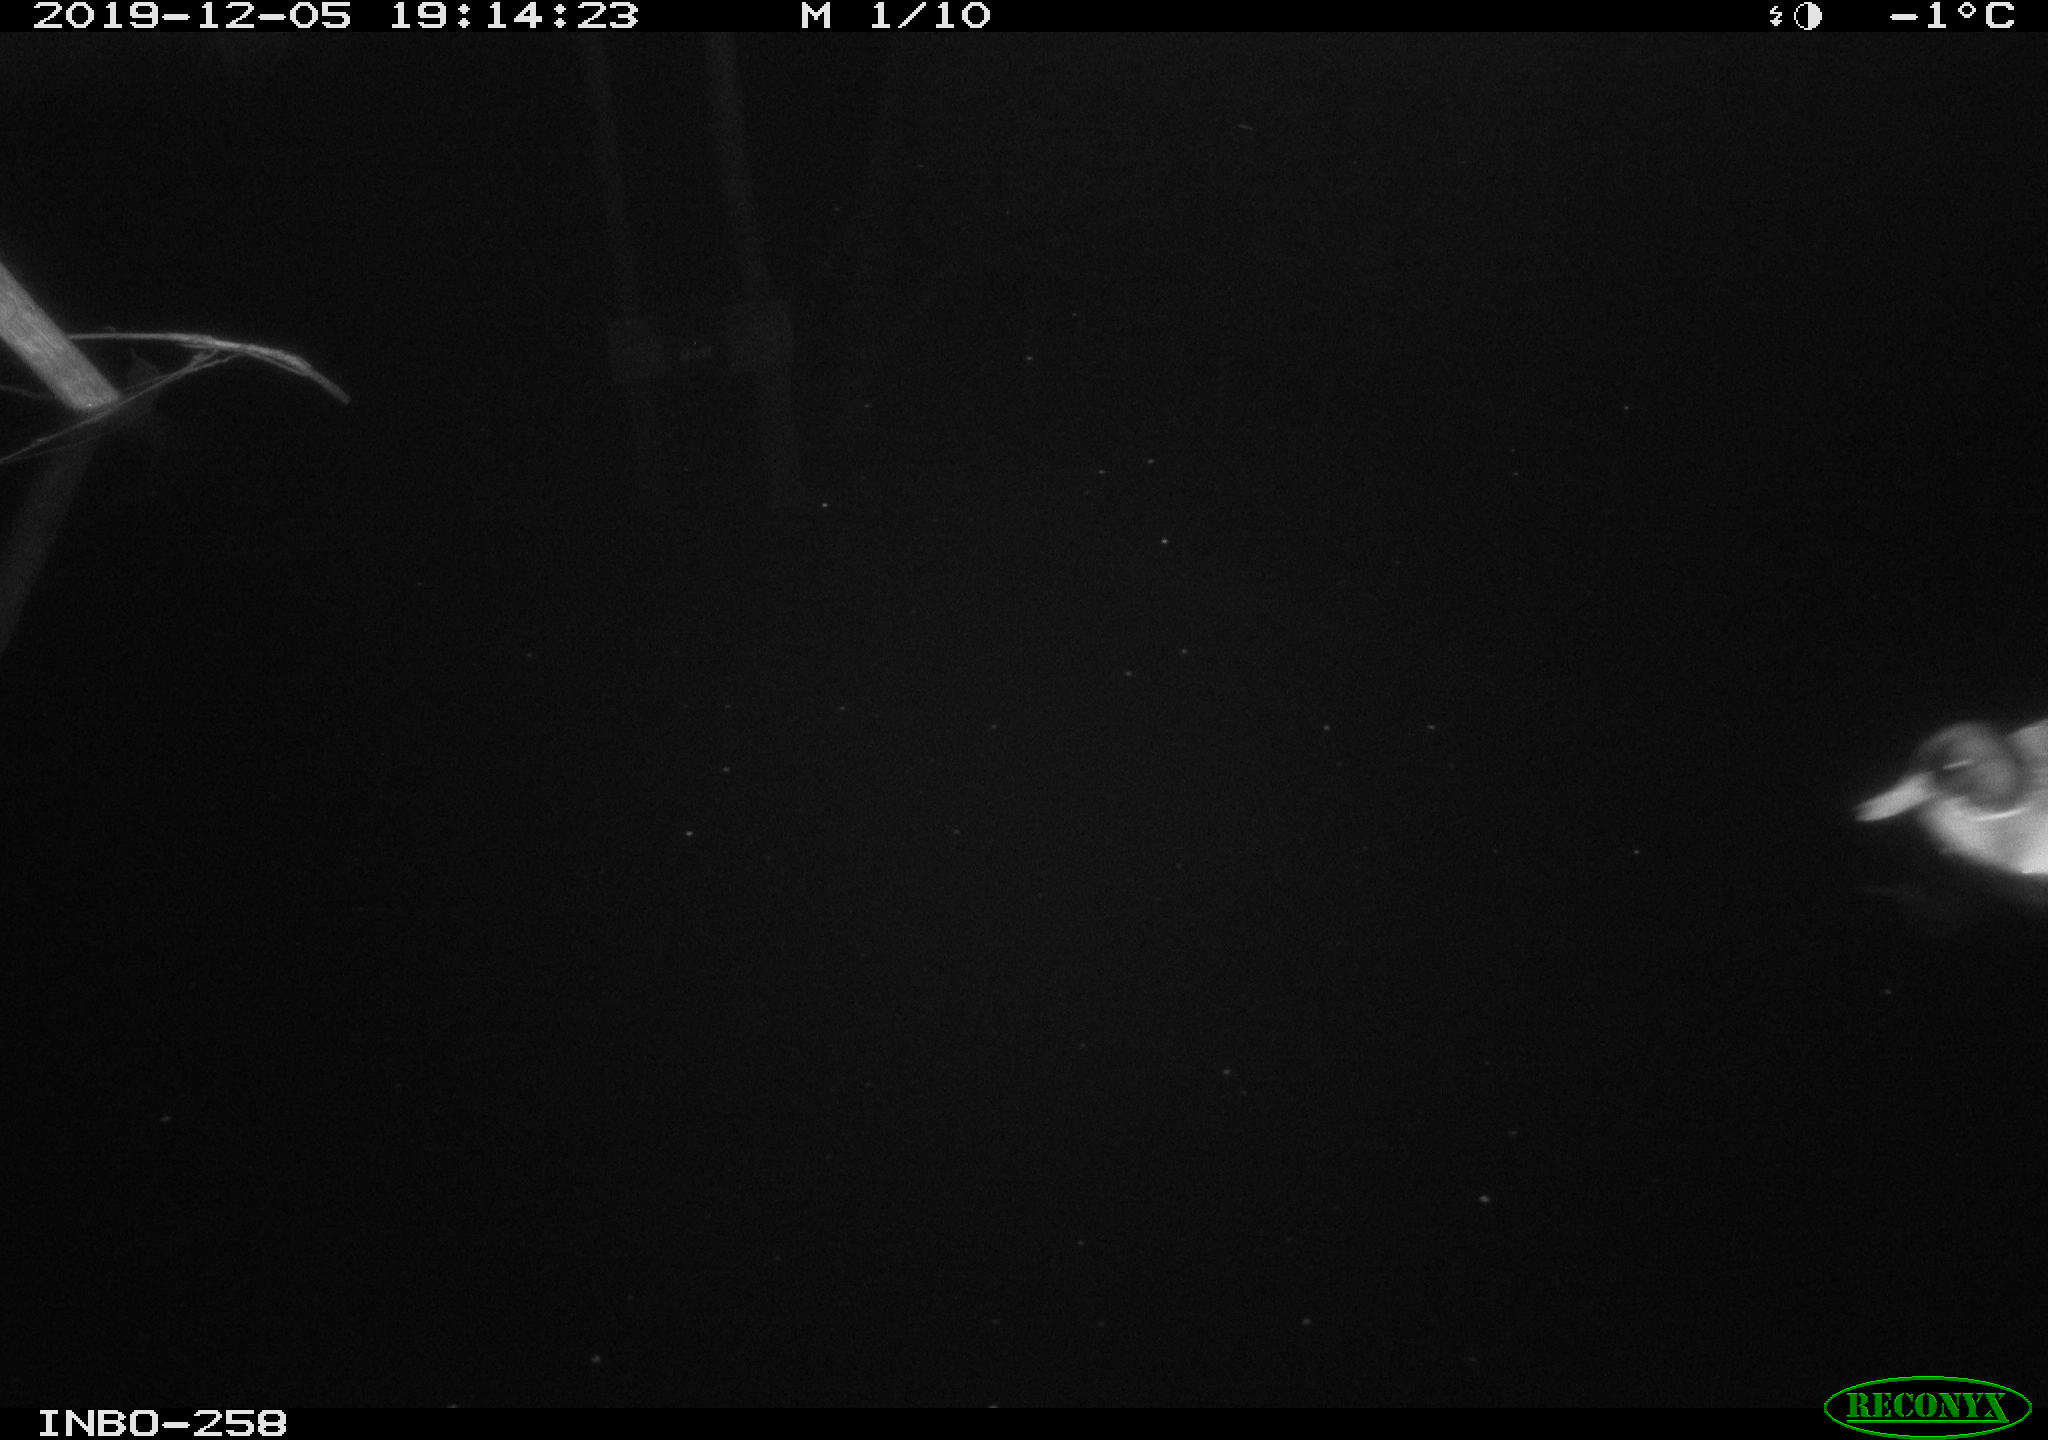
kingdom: Animalia
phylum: Chordata
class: Aves
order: Anseriformes
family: Anatidae
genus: Anas
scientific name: Anas platyrhynchos
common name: Mallard
